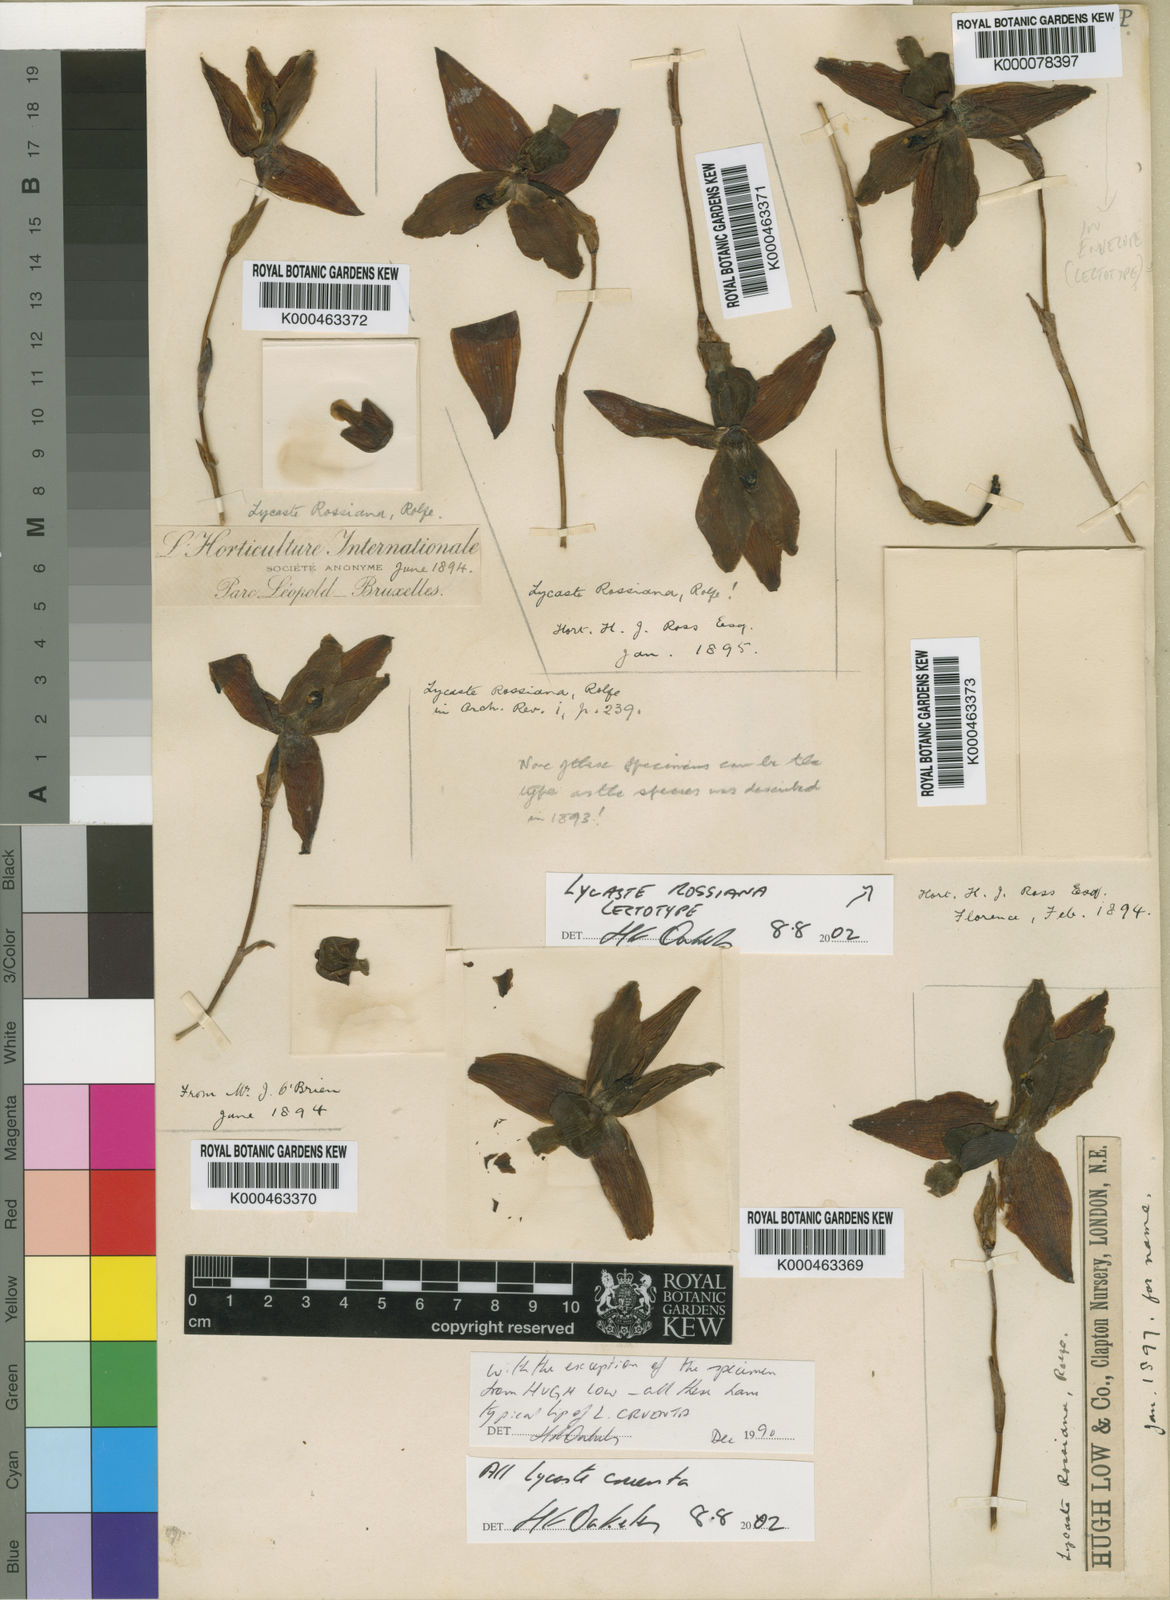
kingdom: Plantae
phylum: Tracheophyta
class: Liliopsida
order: Asparagales
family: Orchidaceae
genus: Lycaste
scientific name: Lycaste cruenta
